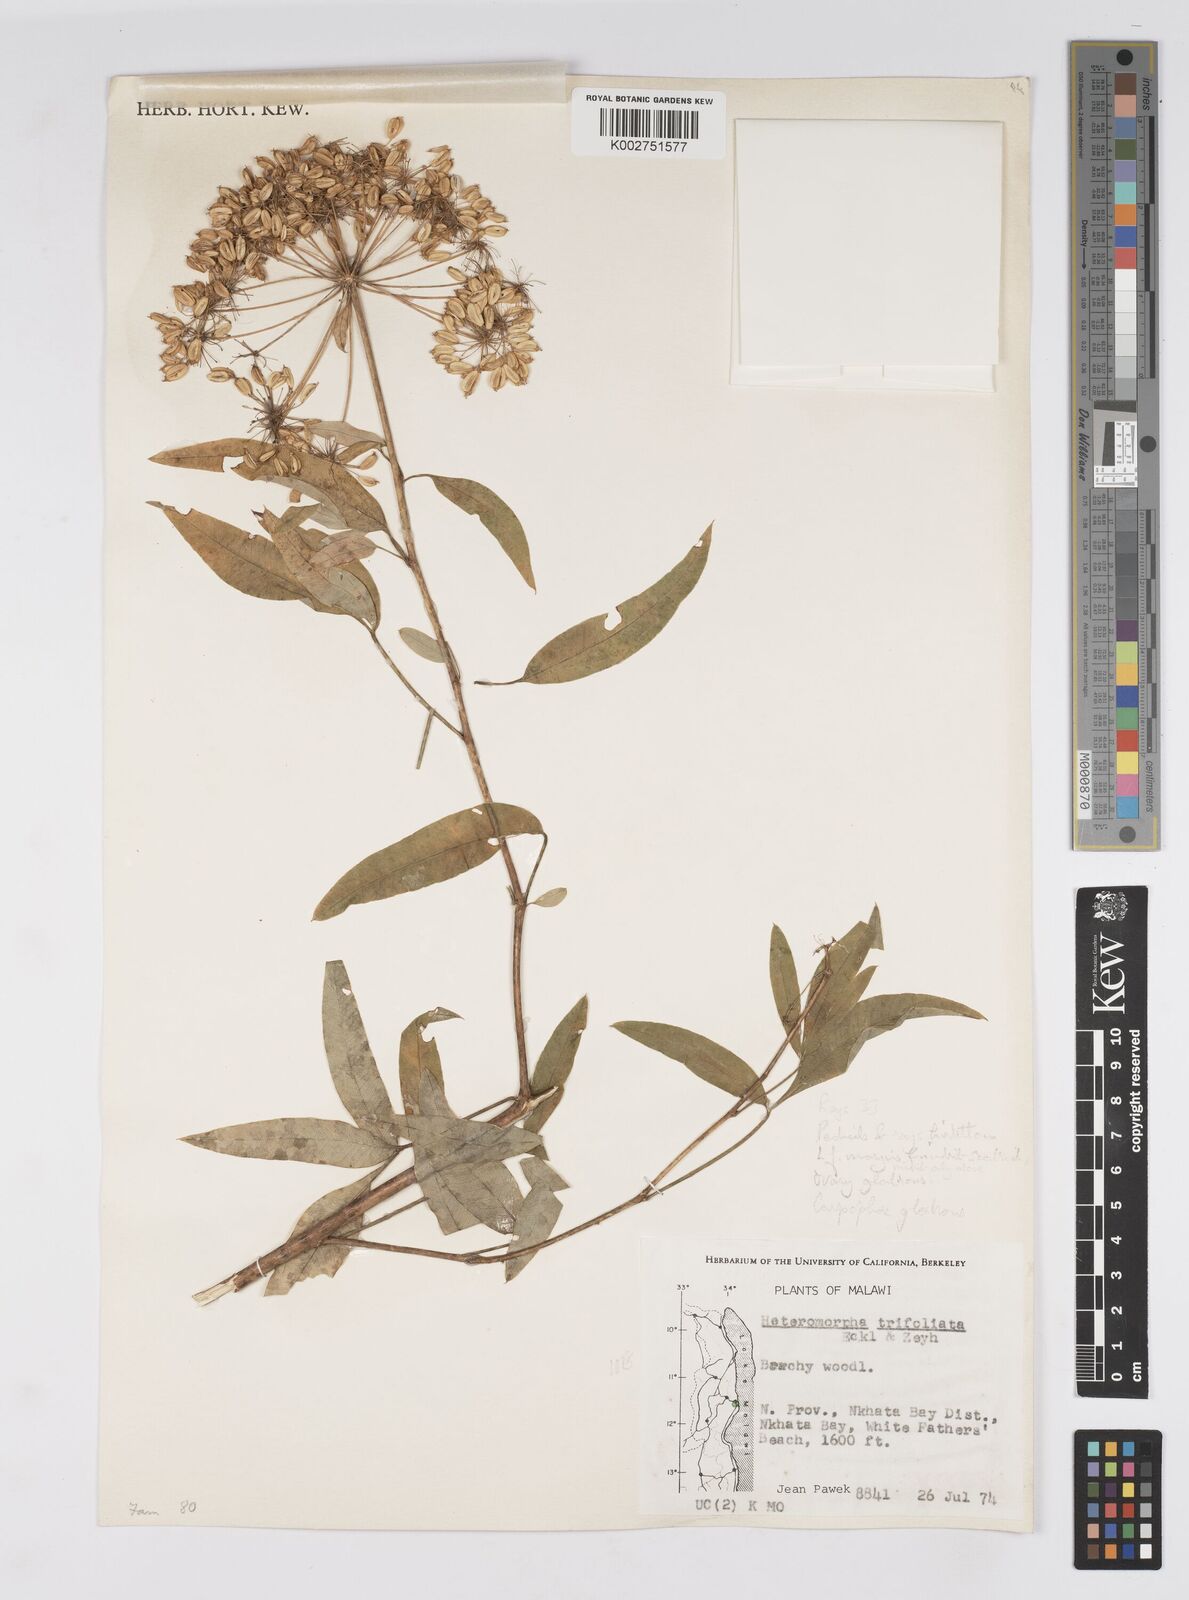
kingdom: Plantae
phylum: Tracheophyta
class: Magnoliopsida
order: Apiales
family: Apiaceae
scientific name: Apiaceae
